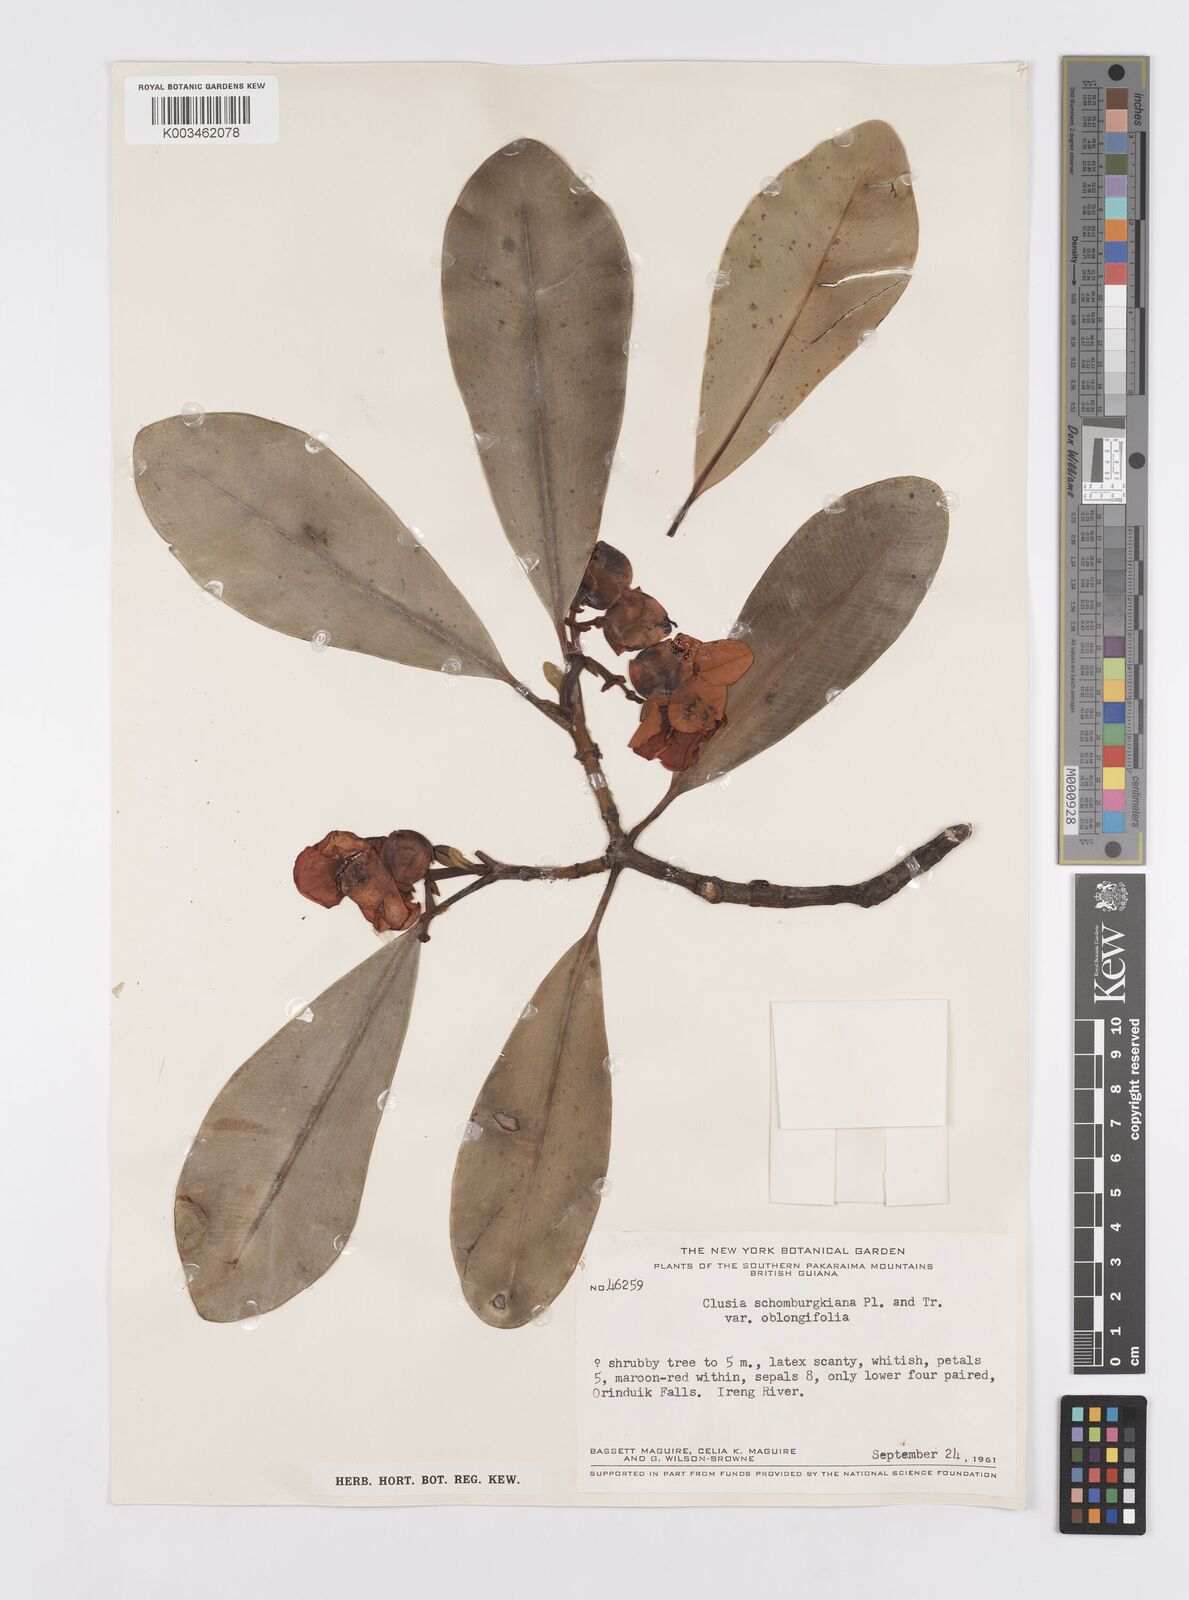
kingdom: Plantae
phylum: Tracheophyta
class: Magnoliopsida
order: Malpighiales
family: Clusiaceae
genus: Clusia
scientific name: Clusia schomburgkiana
